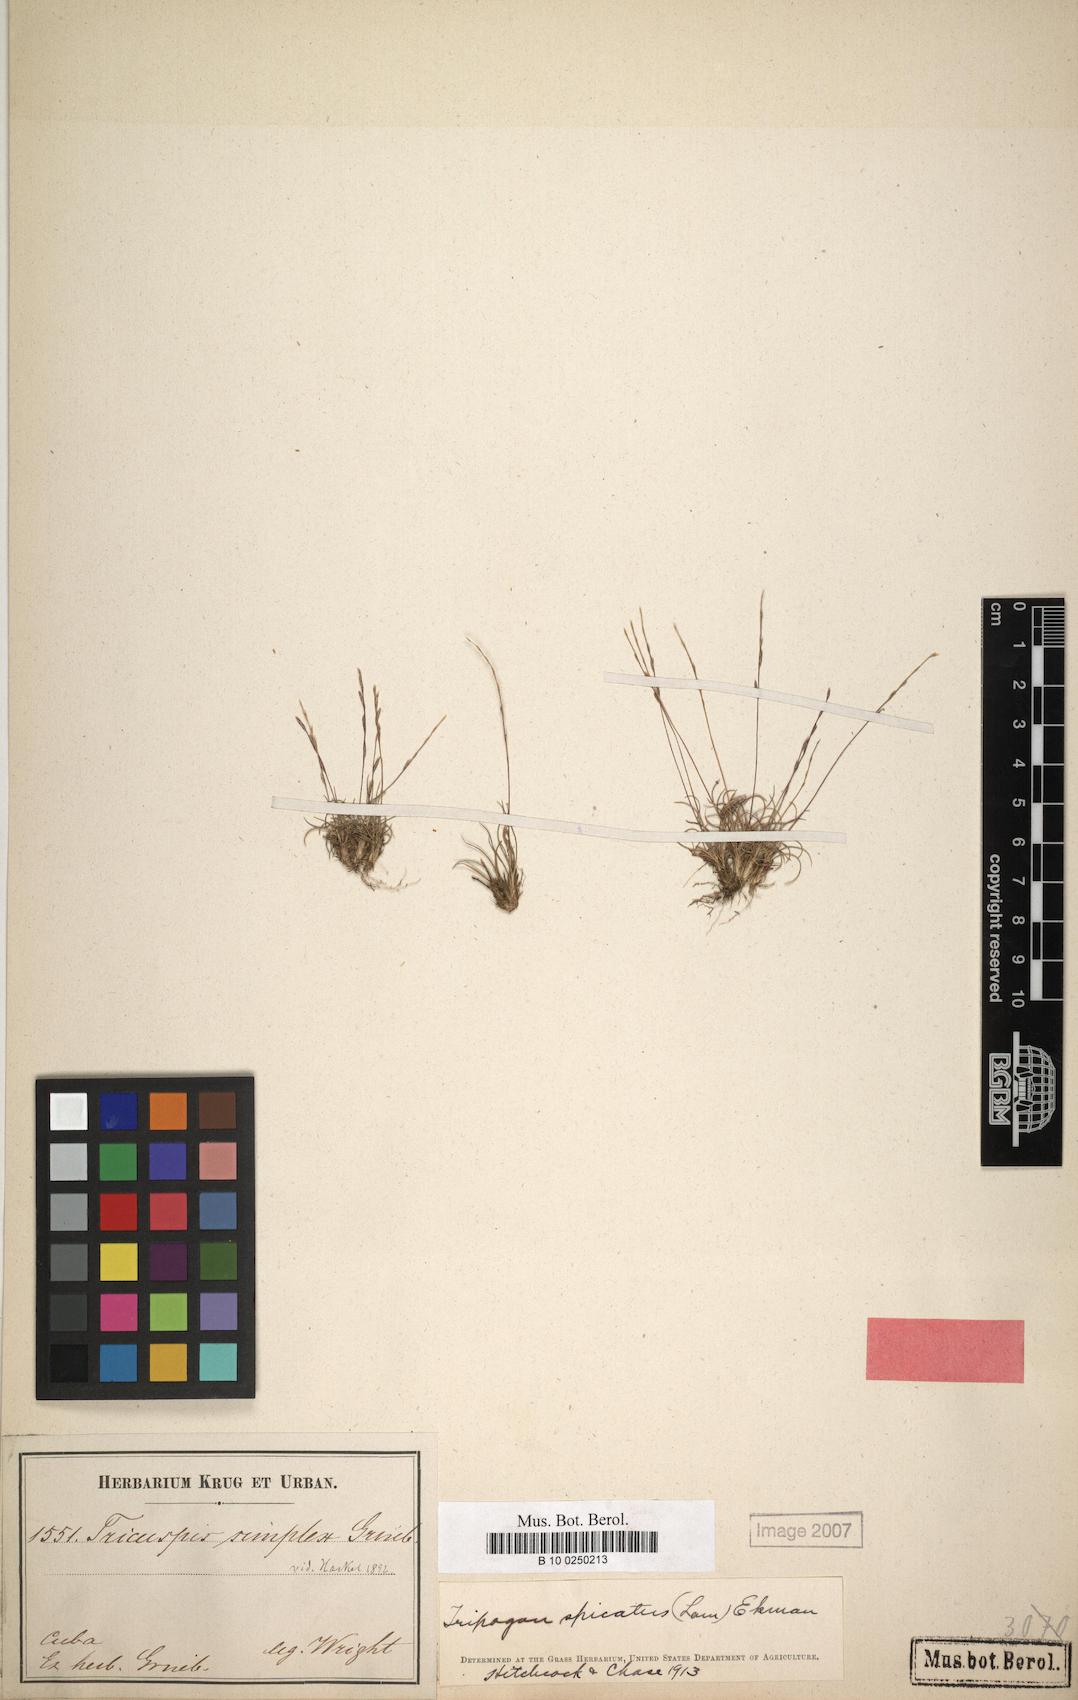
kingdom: Plantae
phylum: Tracheophyta
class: Liliopsida
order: Poales
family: Poaceae
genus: Tripogonella
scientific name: Tripogonella spicata
